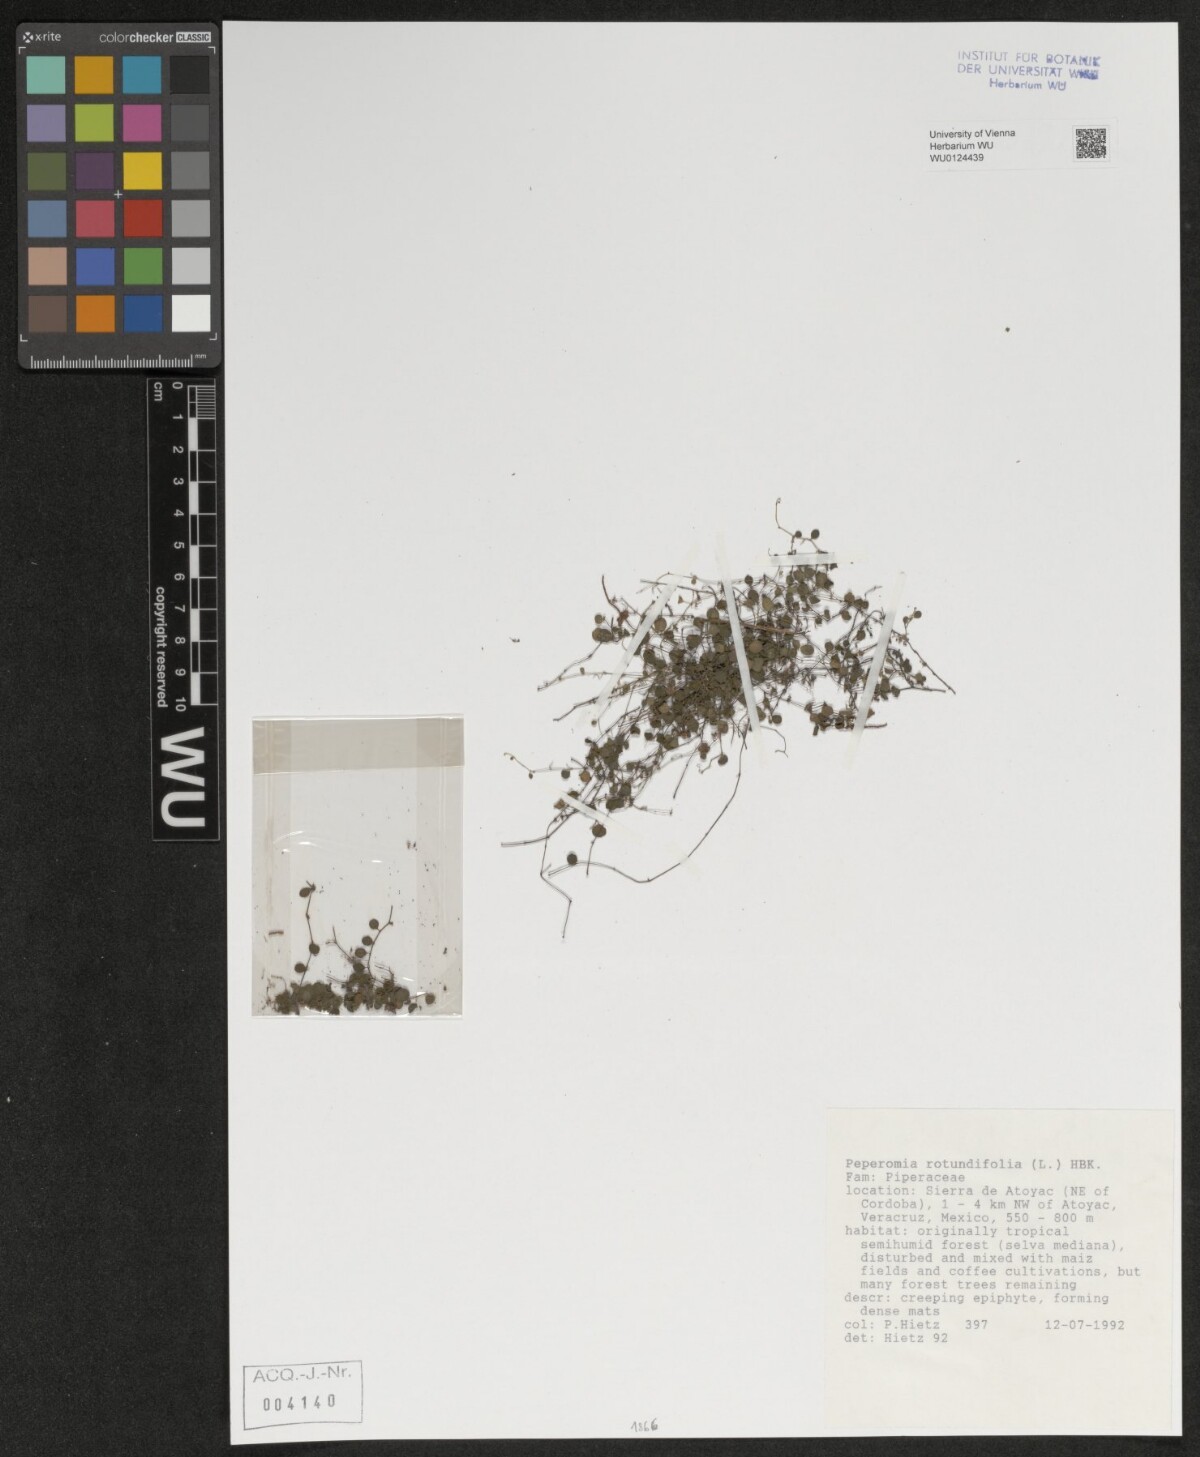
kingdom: Plantae
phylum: Tracheophyta
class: Magnoliopsida
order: Piperales
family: Piperaceae
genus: Peperomia
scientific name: Peperomia rotundifolia
